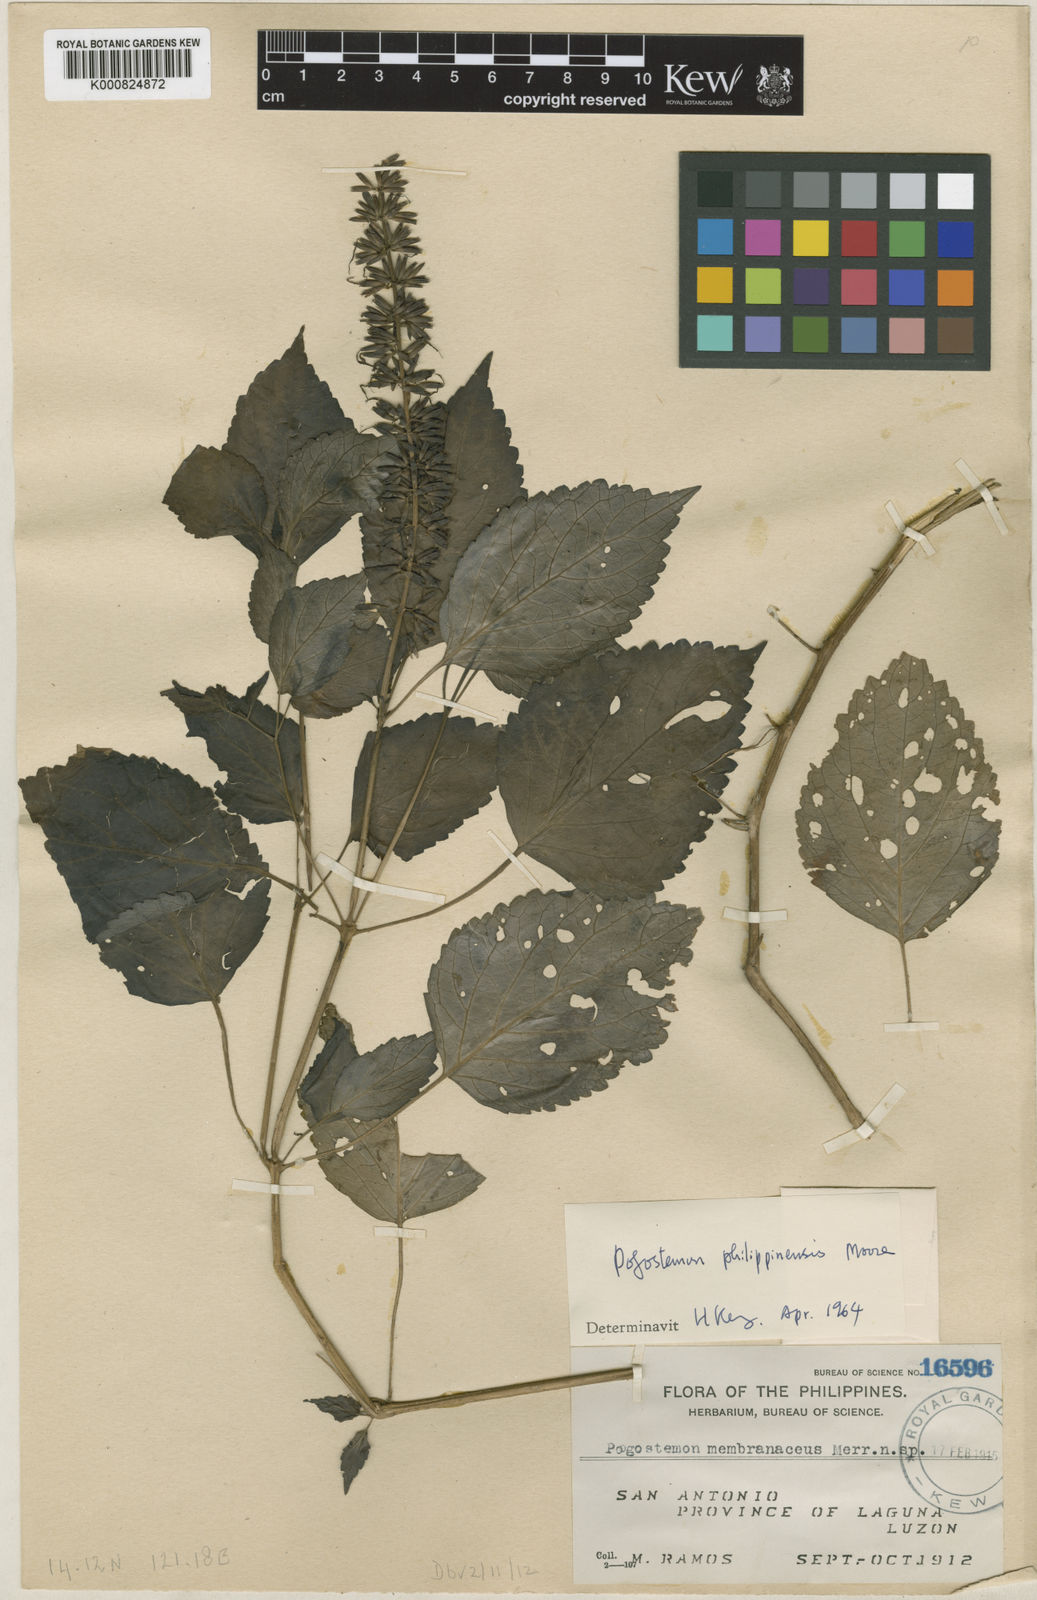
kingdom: Plantae
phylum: Tracheophyta
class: Magnoliopsida
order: Lamiales
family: Lamiaceae
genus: Pogostemon
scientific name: Pogostemon philippinensis
